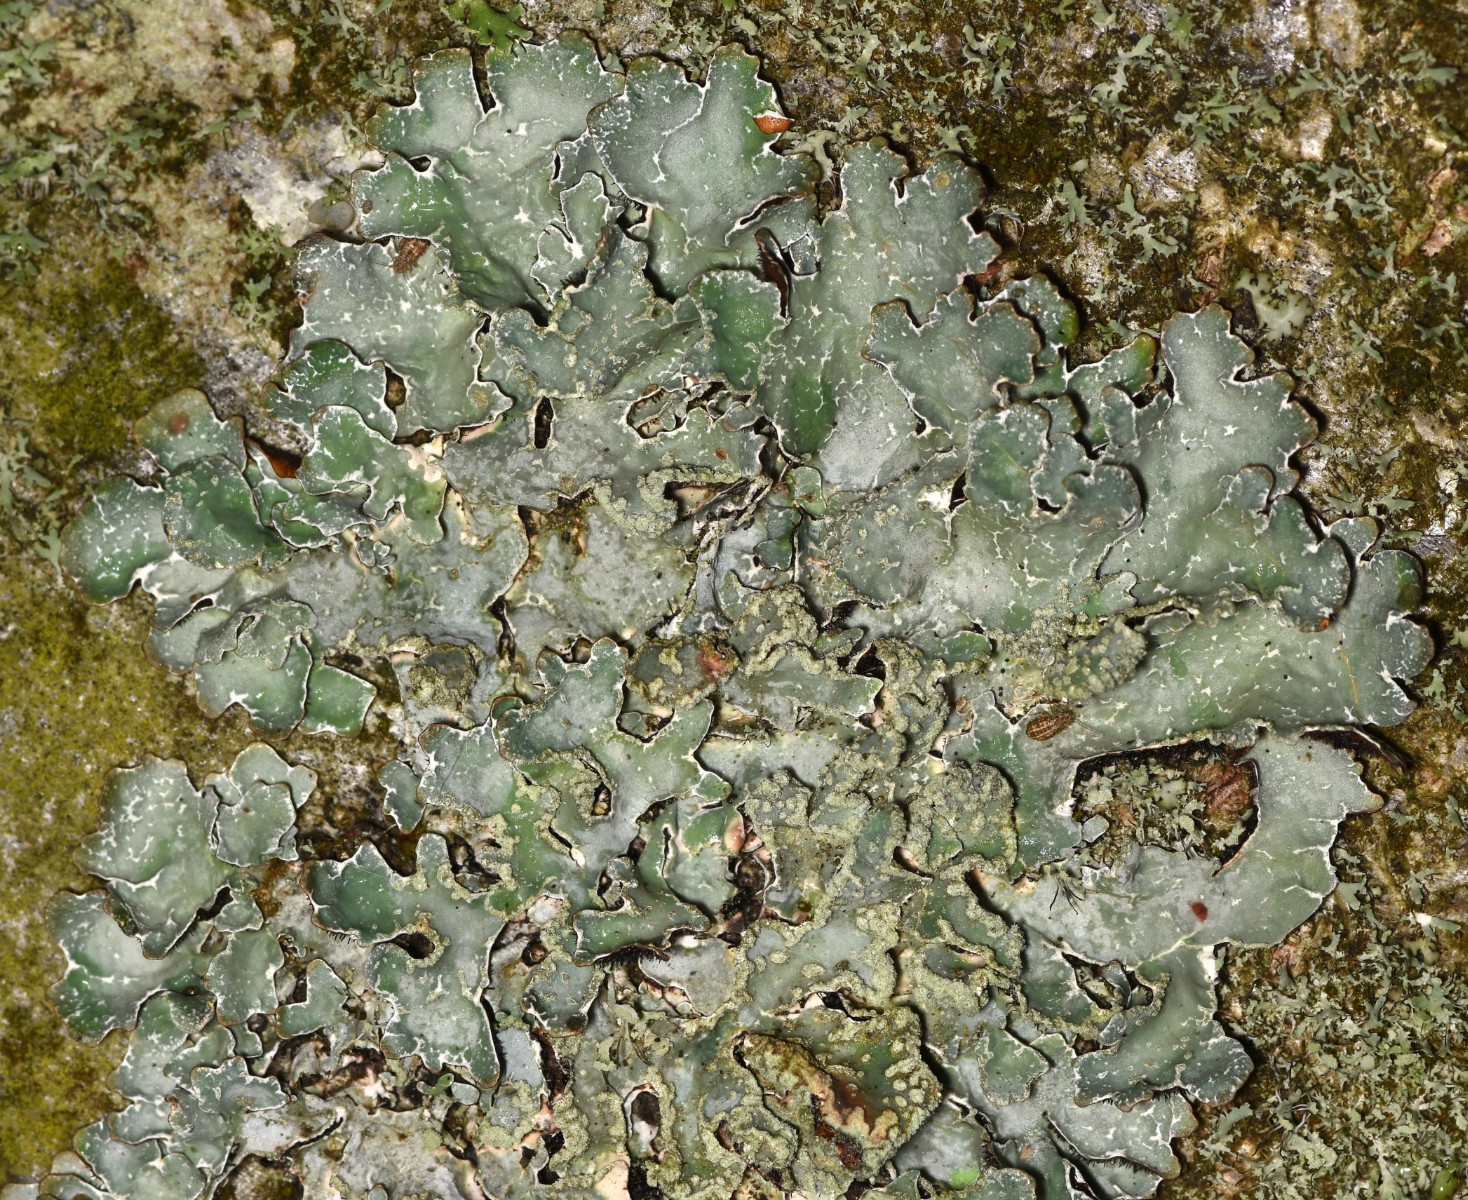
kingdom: Fungi
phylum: Ascomycota
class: Lecanoromycetes
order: Lecanorales
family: Parmeliaceae
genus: Parmelia
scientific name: Parmelia sulcata
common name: rynket skållav
